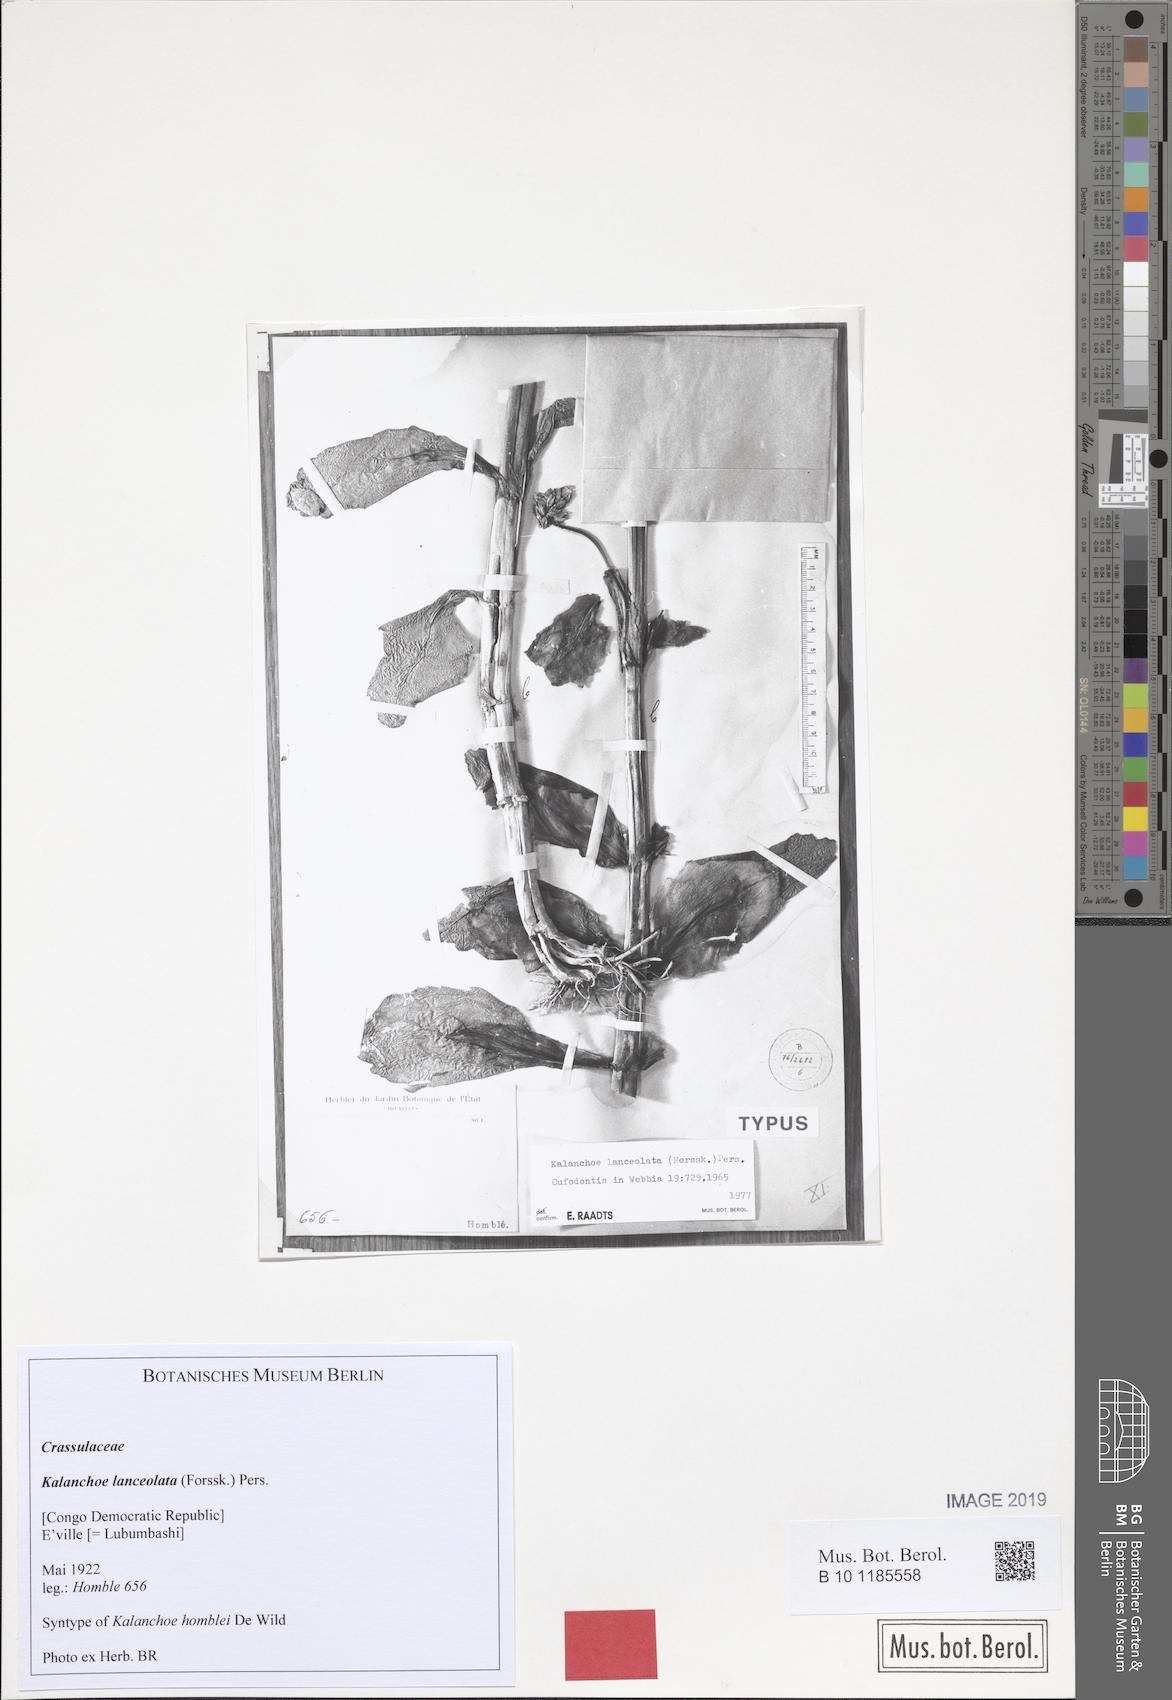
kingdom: Plantae
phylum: Tracheophyta
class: Magnoliopsida
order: Saxifragales
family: Crassulaceae
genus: Kalanchoe
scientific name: Kalanchoe lanceolata
